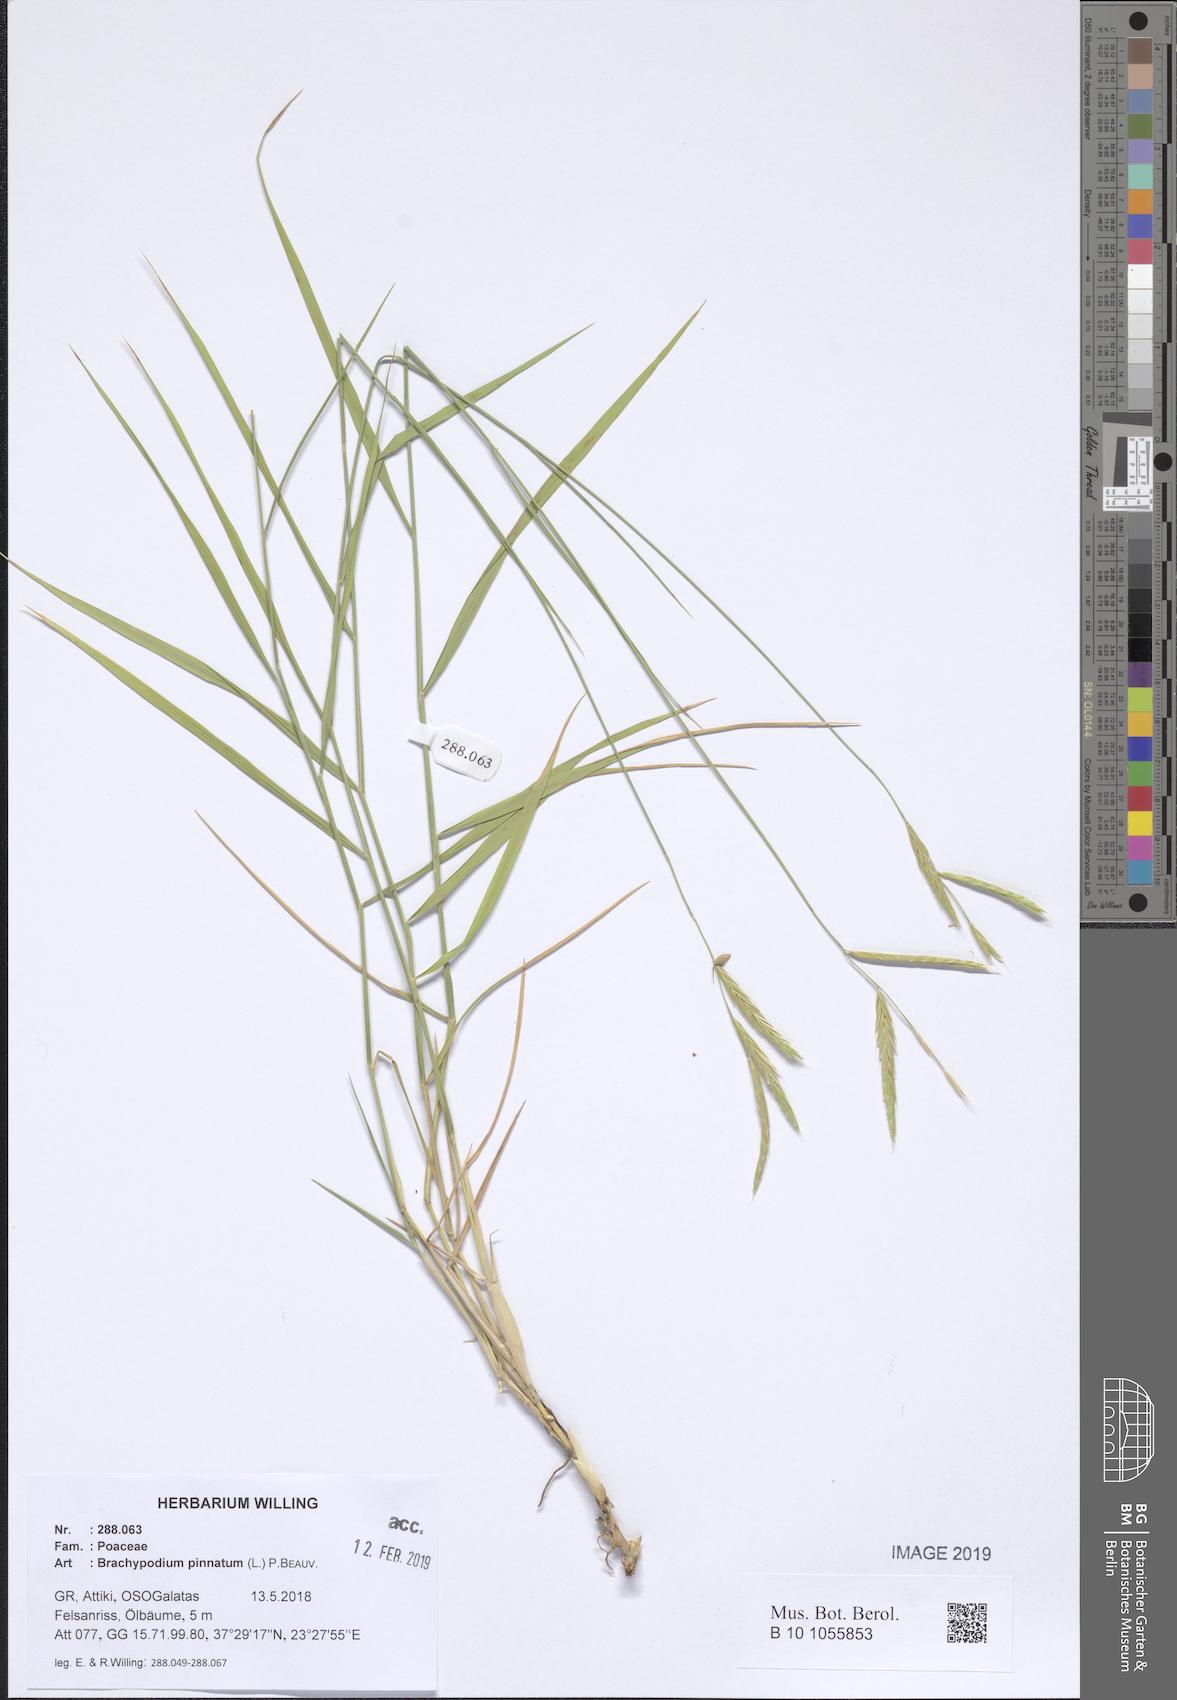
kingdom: Plantae
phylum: Tracheophyta
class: Liliopsida
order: Poales
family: Poaceae
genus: Brachypodium
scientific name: Brachypodium pinnatum
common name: Tor grass
